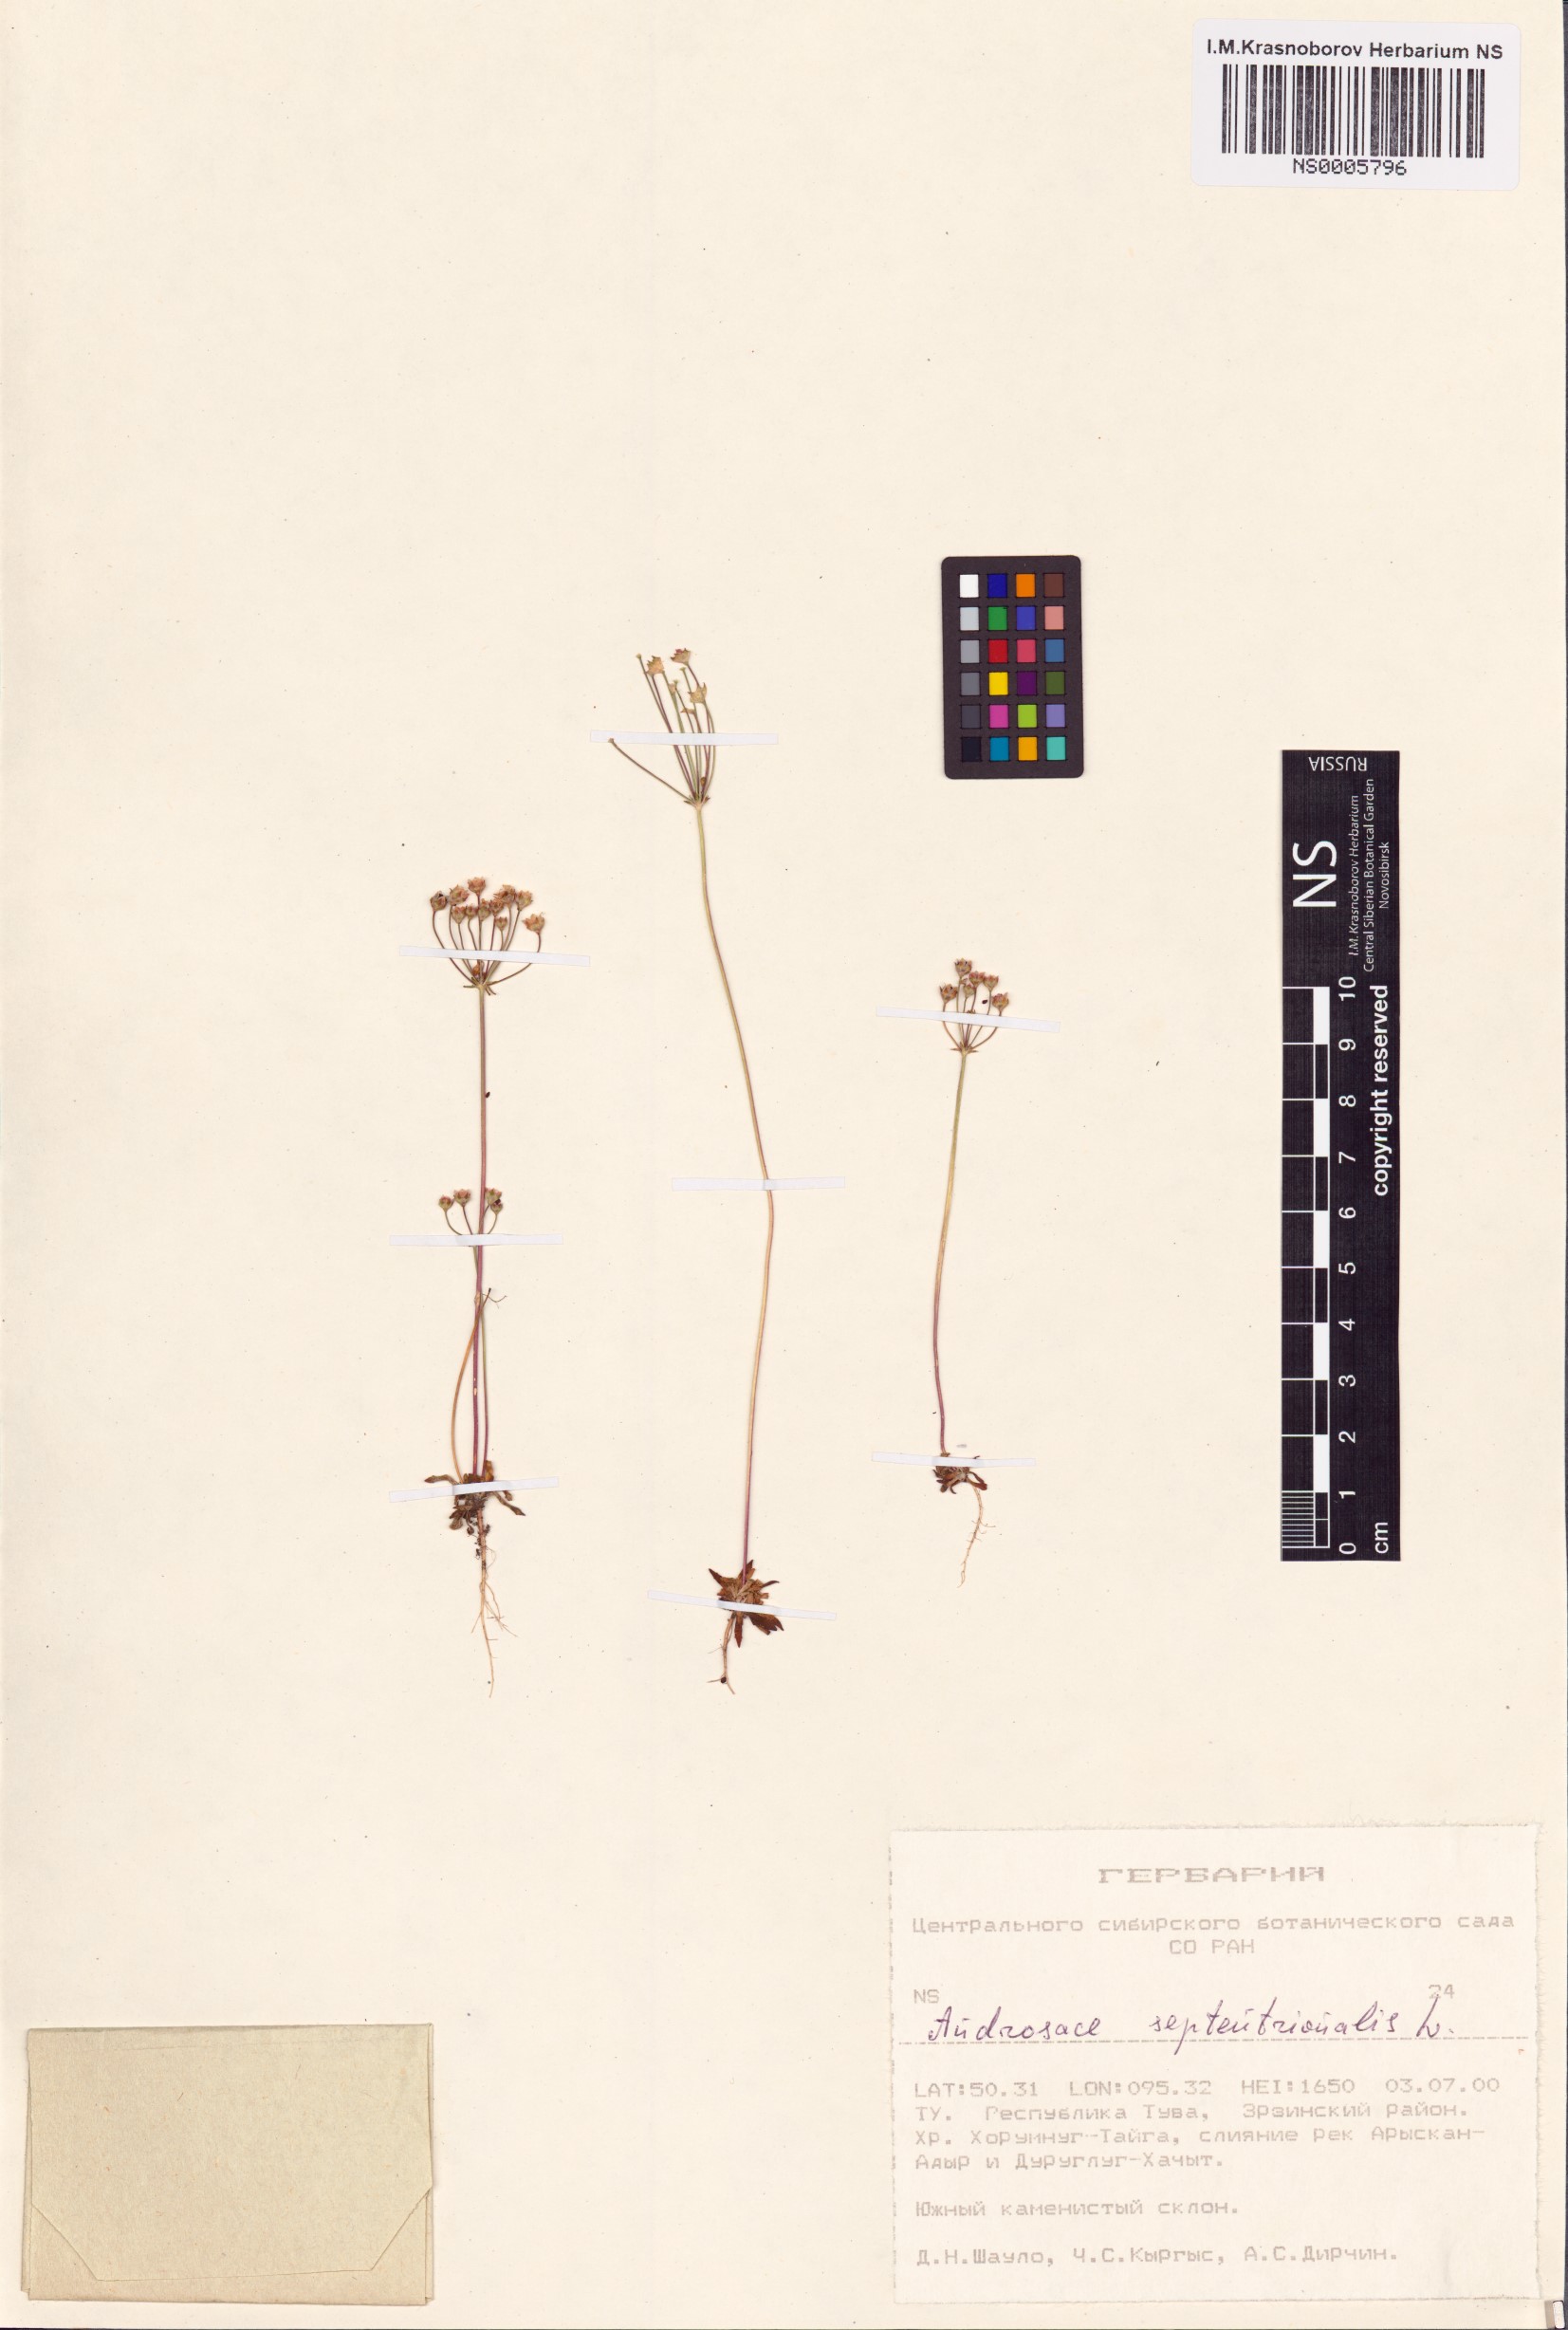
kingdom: Plantae
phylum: Tracheophyta
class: Magnoliopsida
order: Ericales
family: Primulaceae
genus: Androsace
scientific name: Androsace septentrionalis
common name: Hairy northern fairy-candelabra
